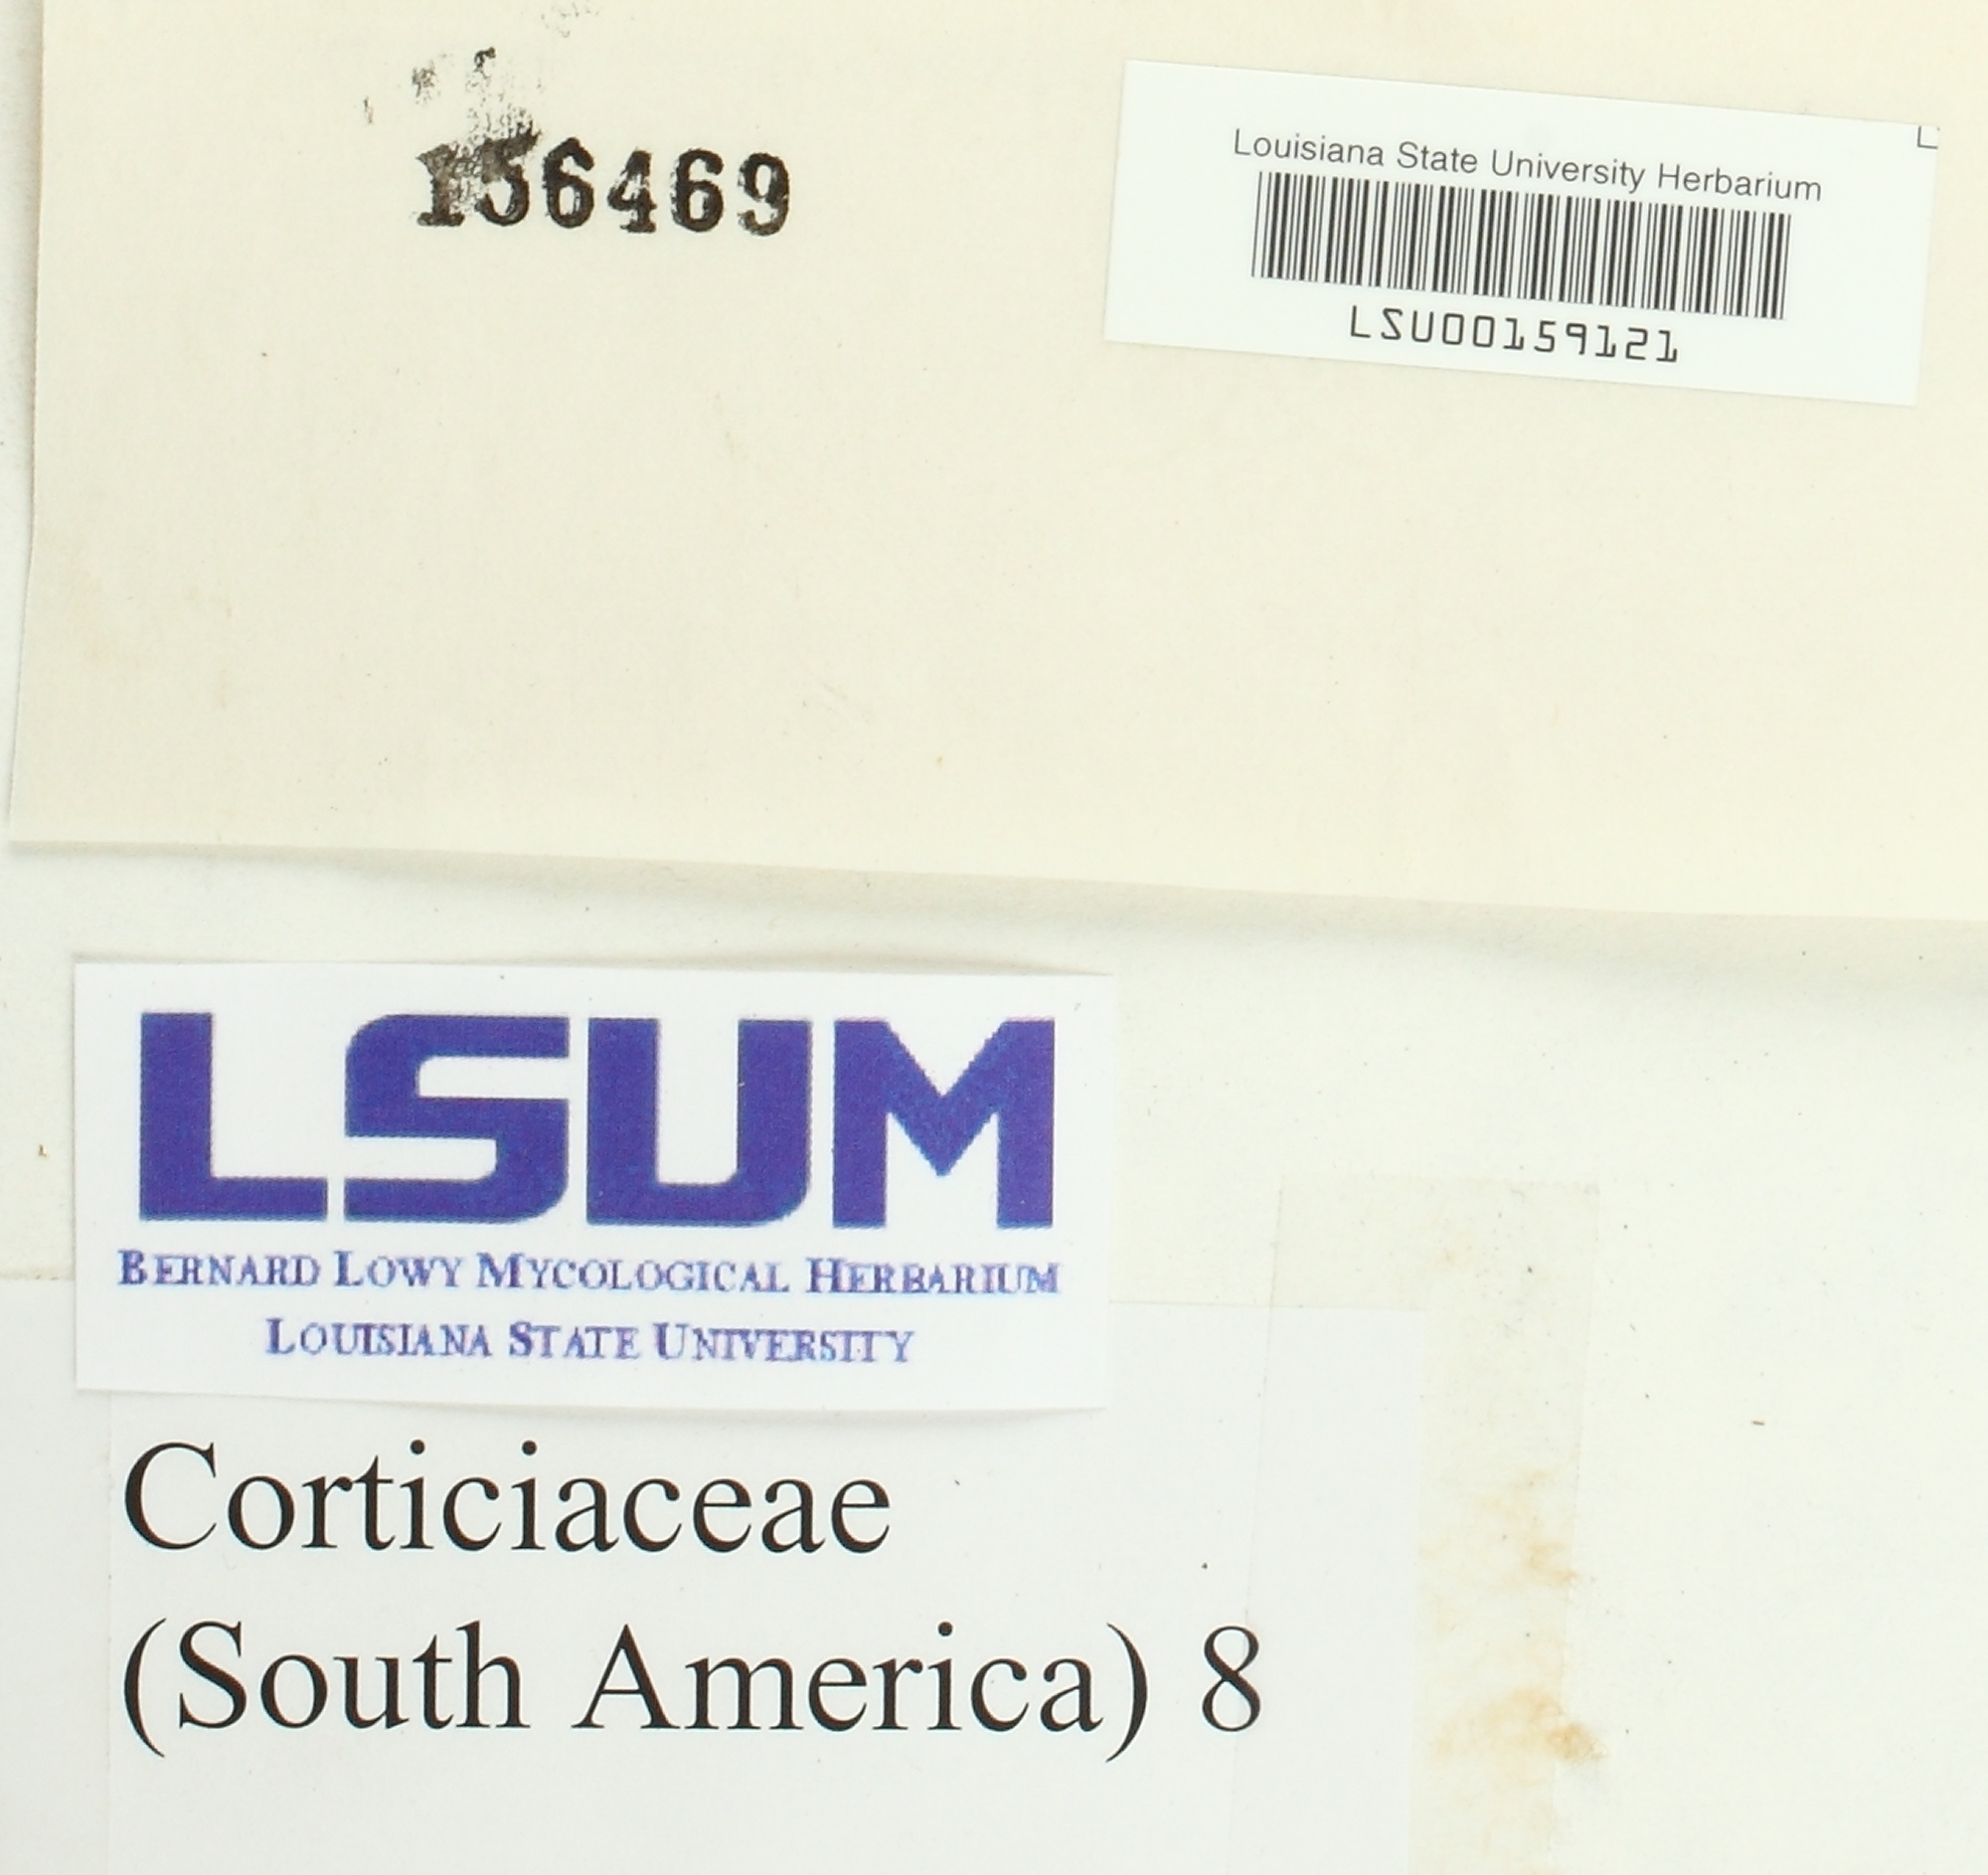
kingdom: Fungi
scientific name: Fungi
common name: Fungi
